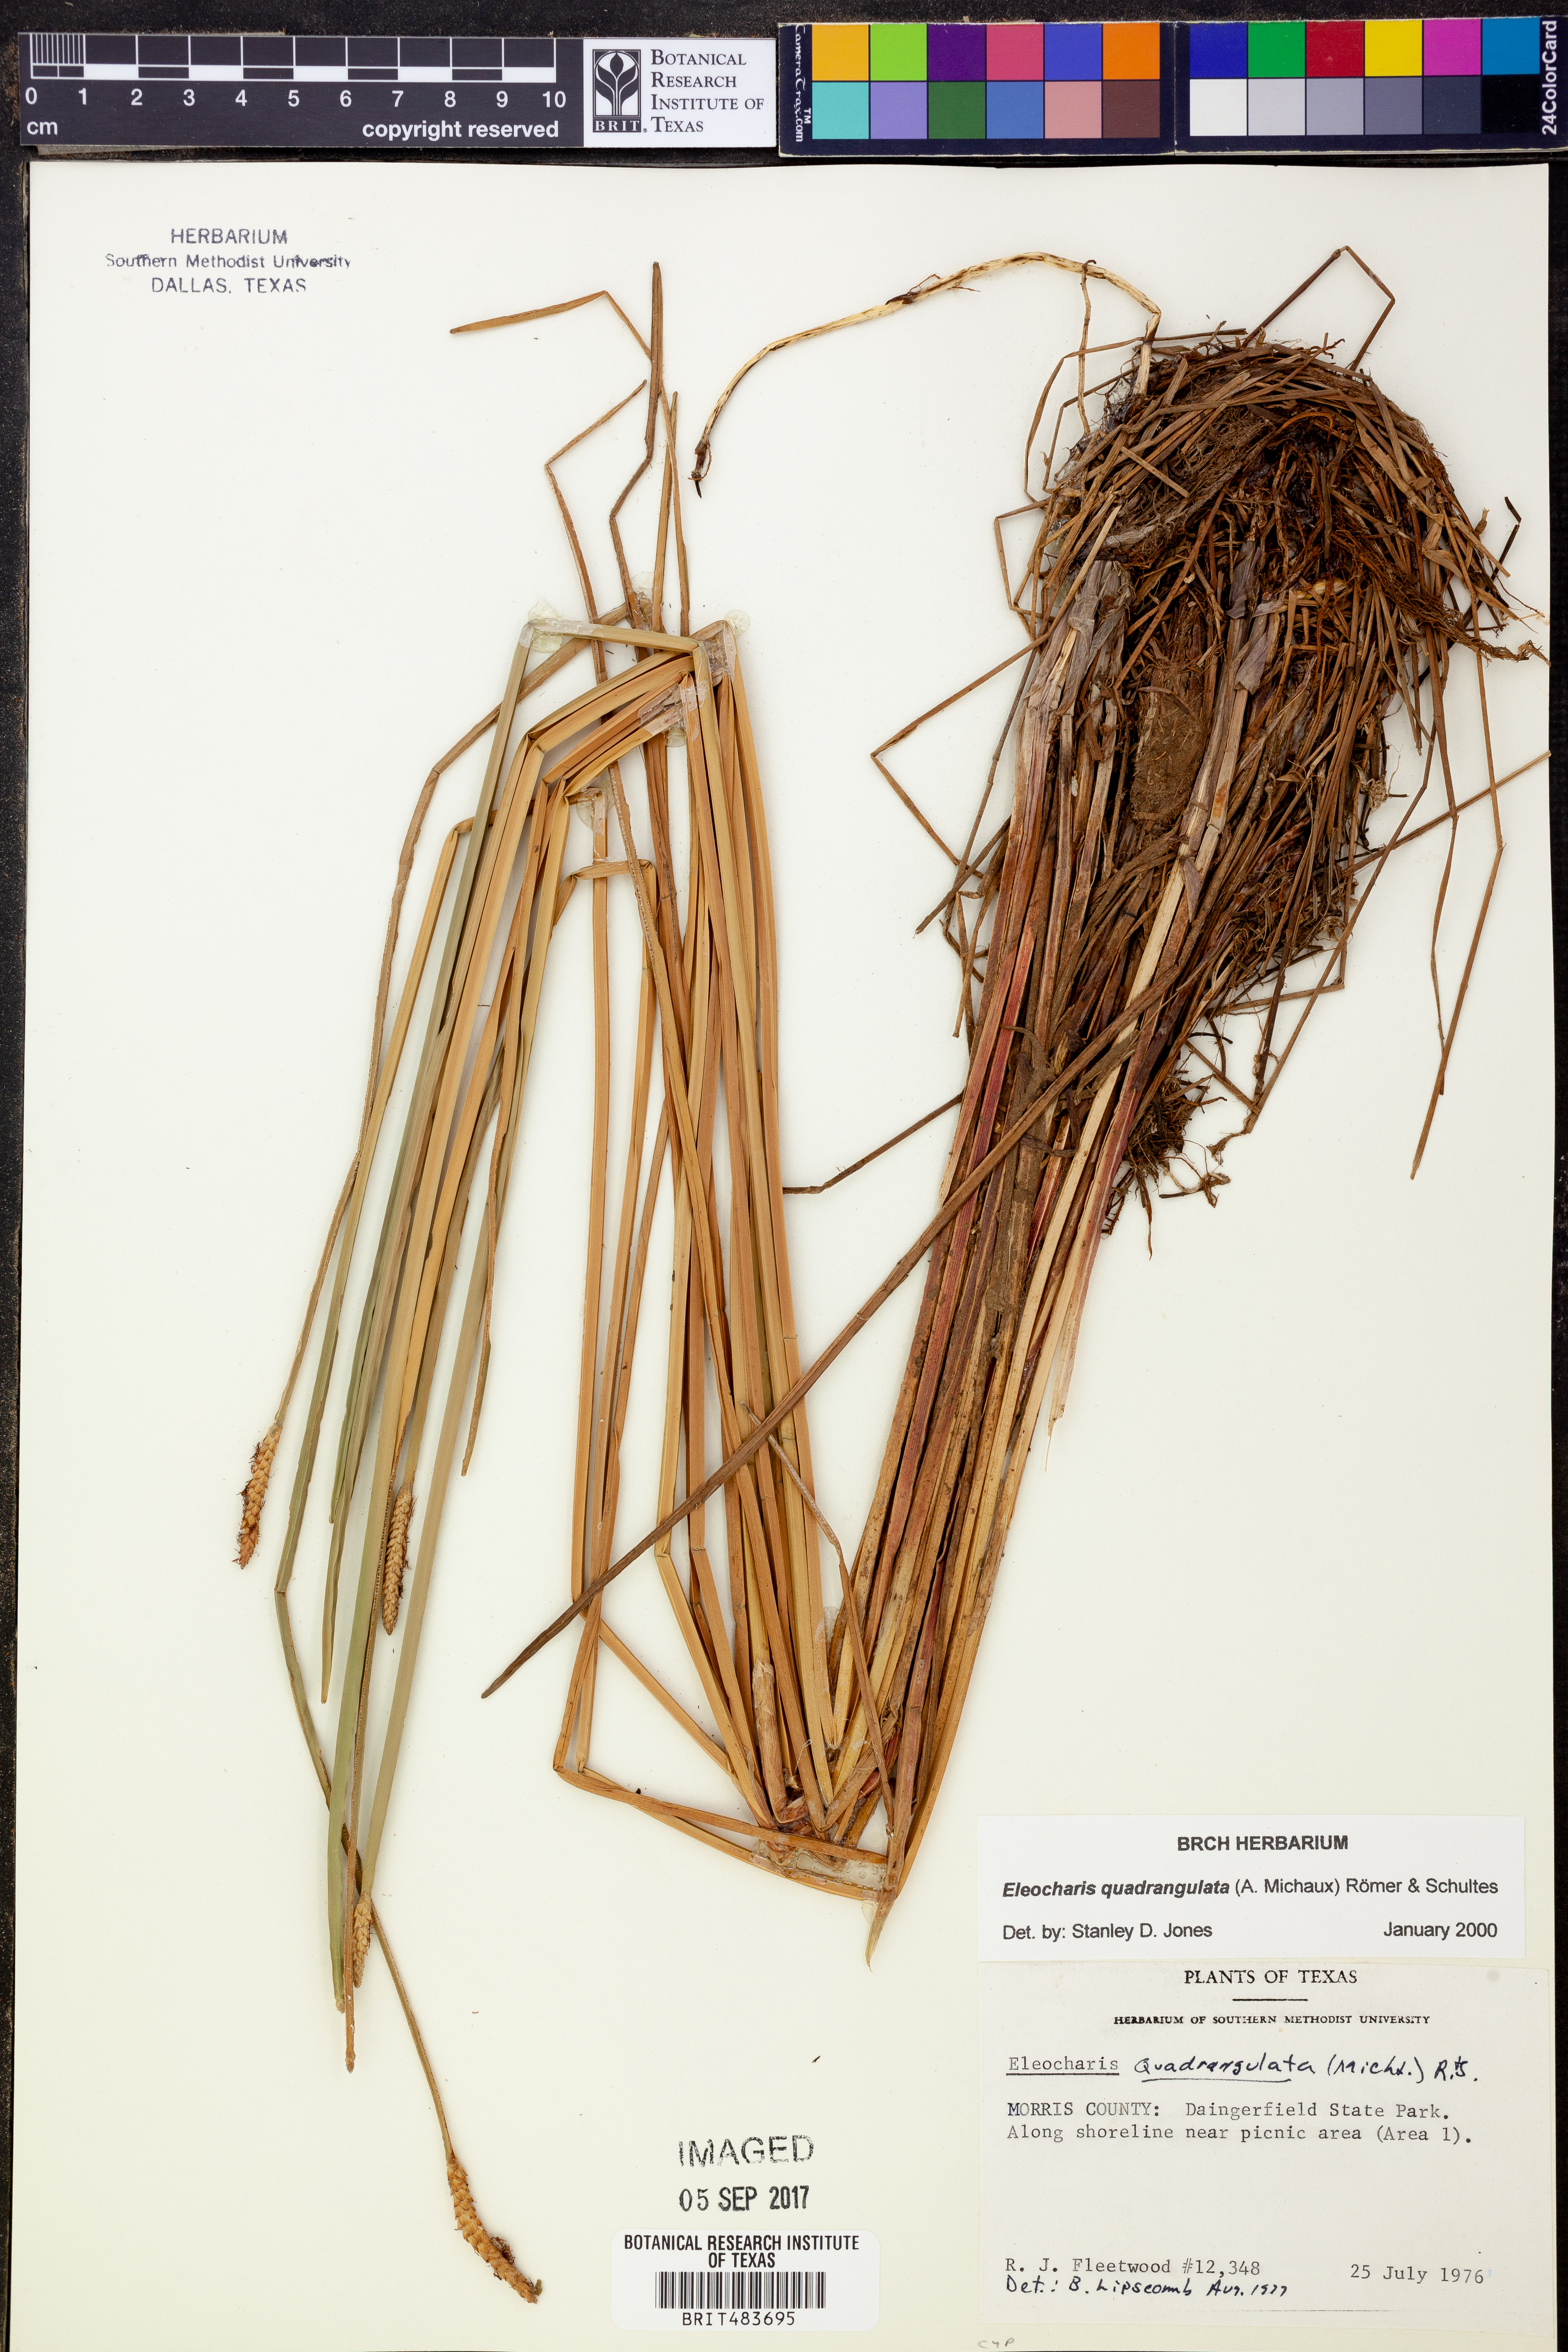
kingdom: Plantae
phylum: Tracheophyta
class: Liliopsida
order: Poales
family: Cyperaceae
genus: Eleocharis
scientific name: Eleocharis quadrangulata
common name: Square-stem spike-rush
